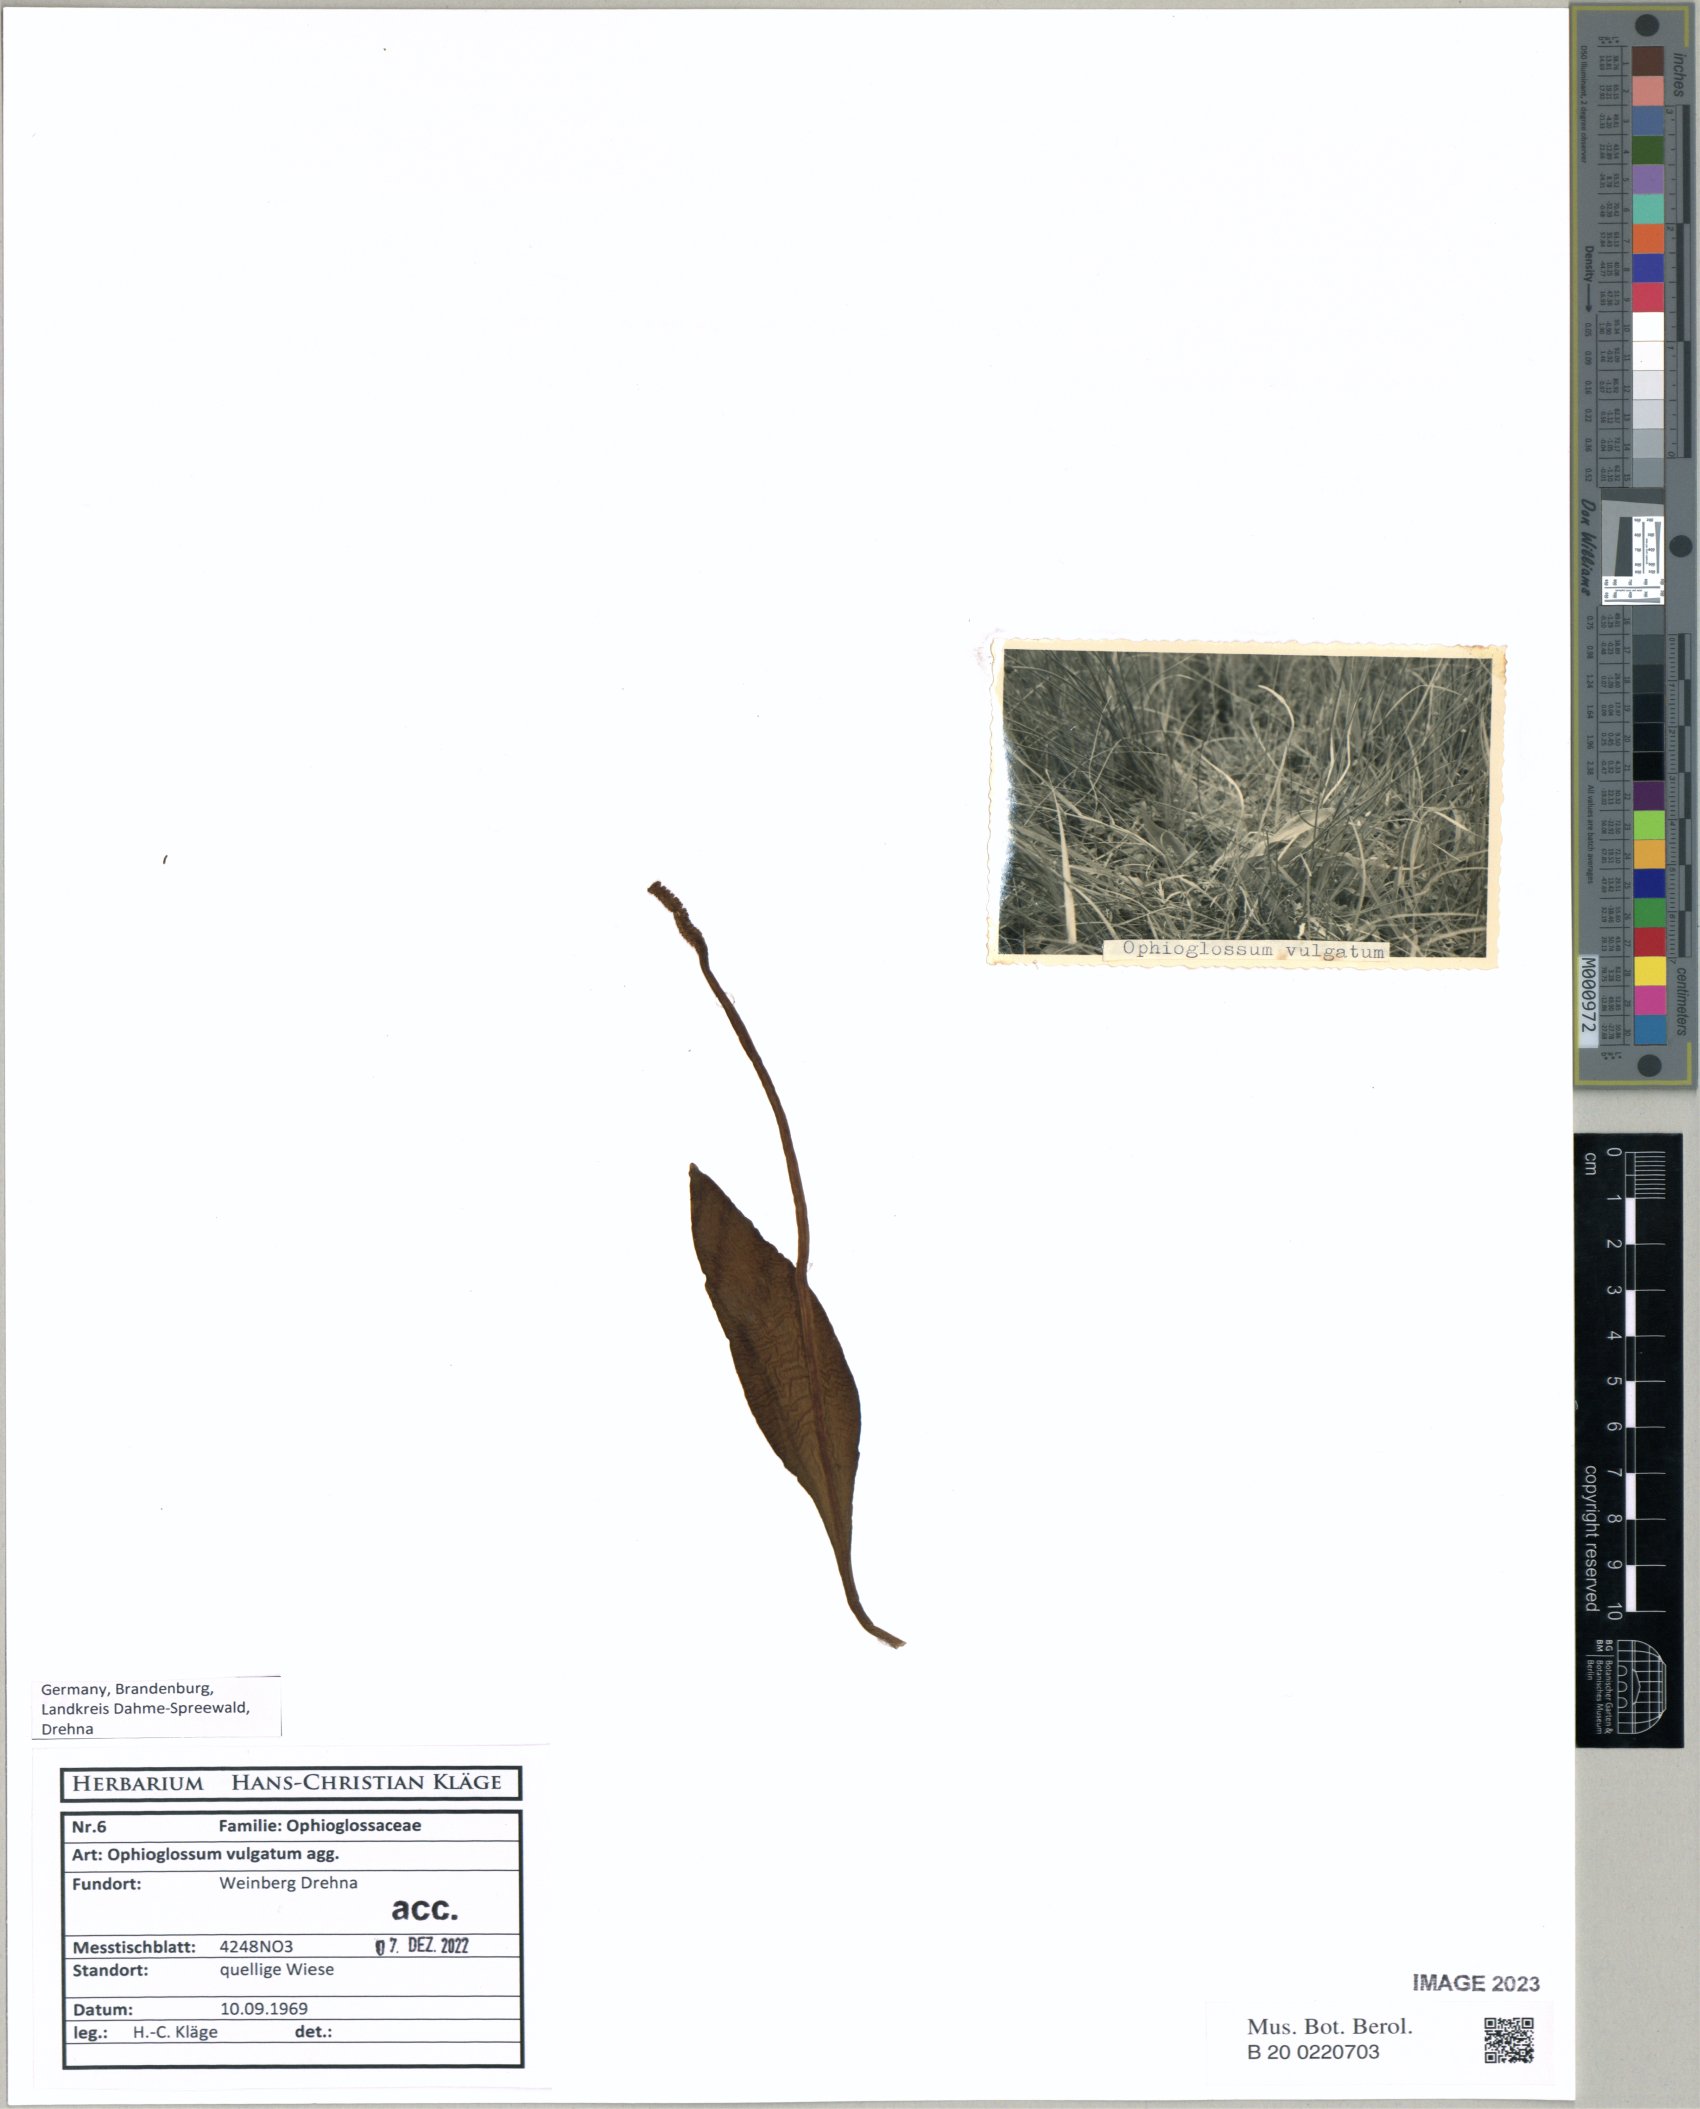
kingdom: Plantae
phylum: Tracheophyta
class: Polypodiopsida
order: Ophioglossales
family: Ophioglossaceae
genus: Ophioglossum
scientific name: Ophioglossum vulgatum
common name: Adder's-tongue
